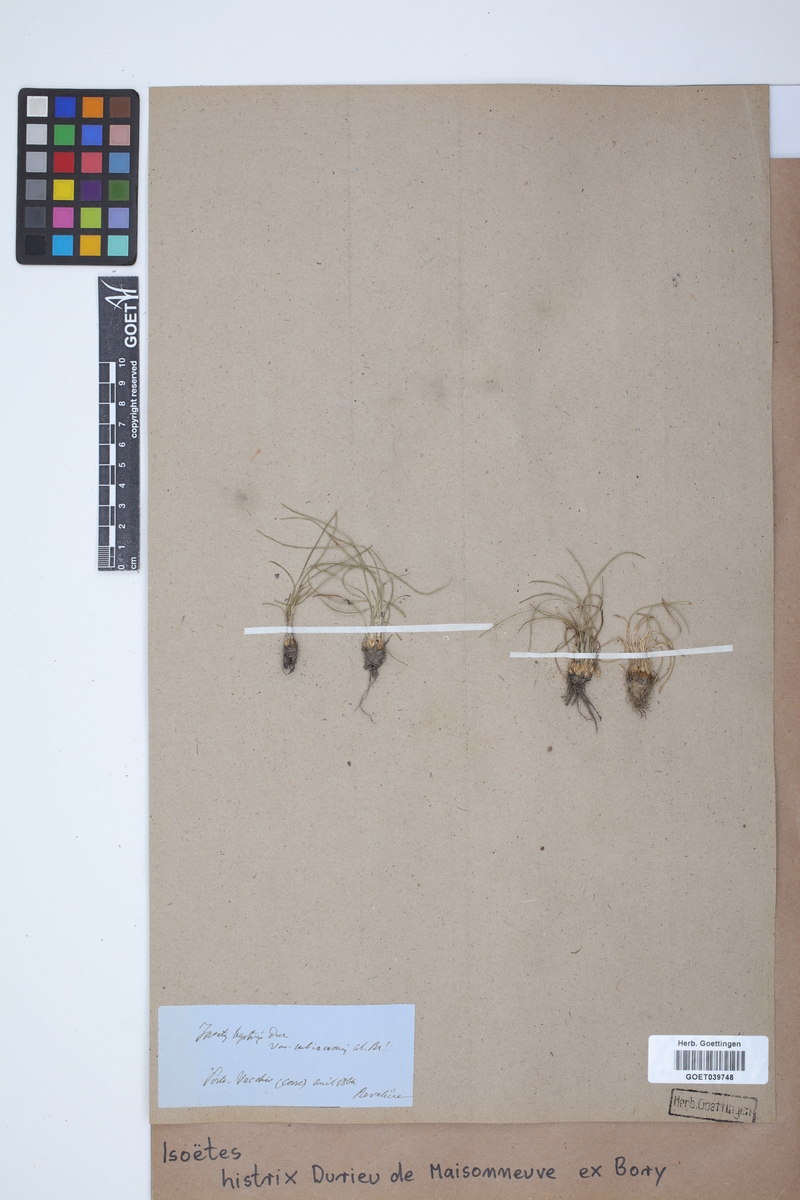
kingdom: Plantae
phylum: Tracheophyta
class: Lycopodiopsida
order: Isoetales
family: Isoetaceae
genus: Isoetes
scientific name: Isoetes histrix
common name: Land quillwort
